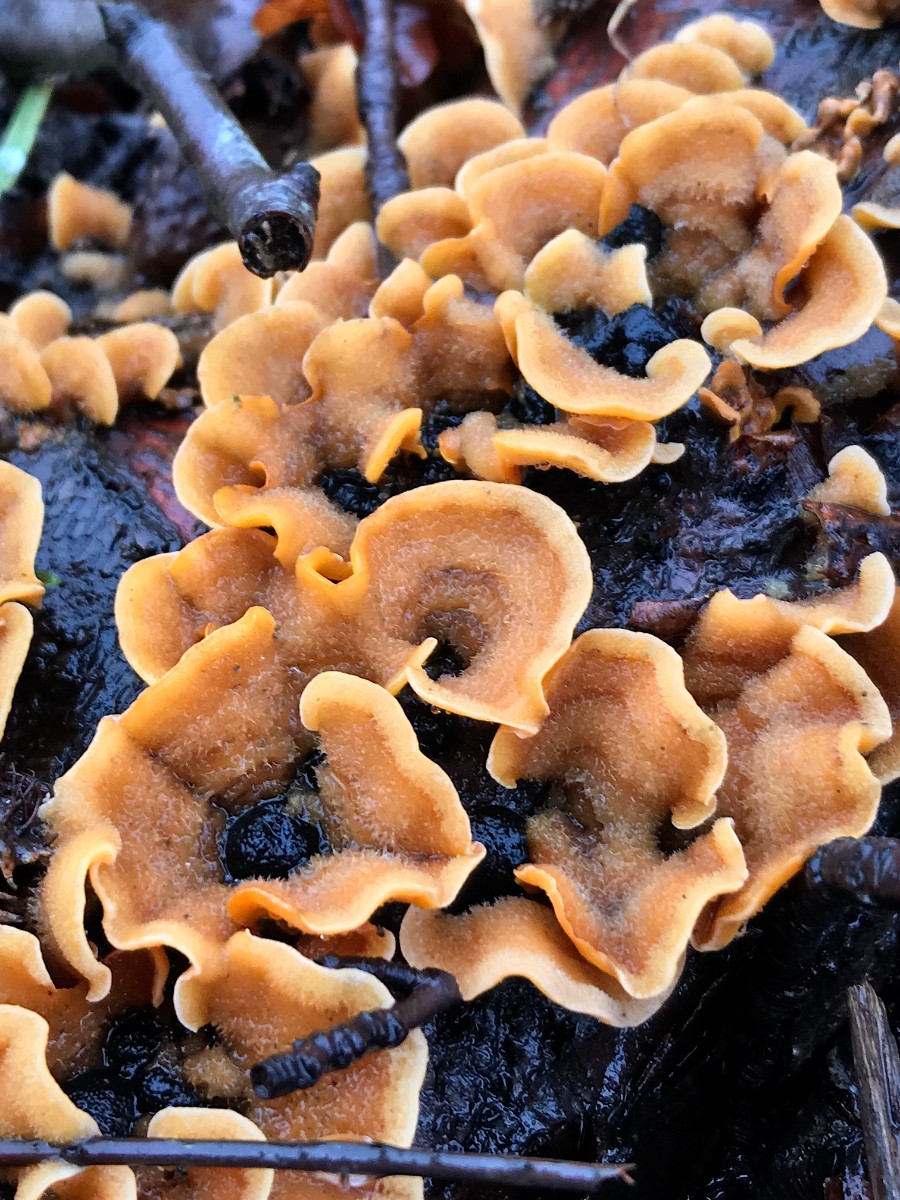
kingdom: Fungi
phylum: Basidiomycota
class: Agaricomycetes
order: Russulales
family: Stereaceae
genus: Stereum
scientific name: Stereum hirsutum
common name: håret lædersvamp
